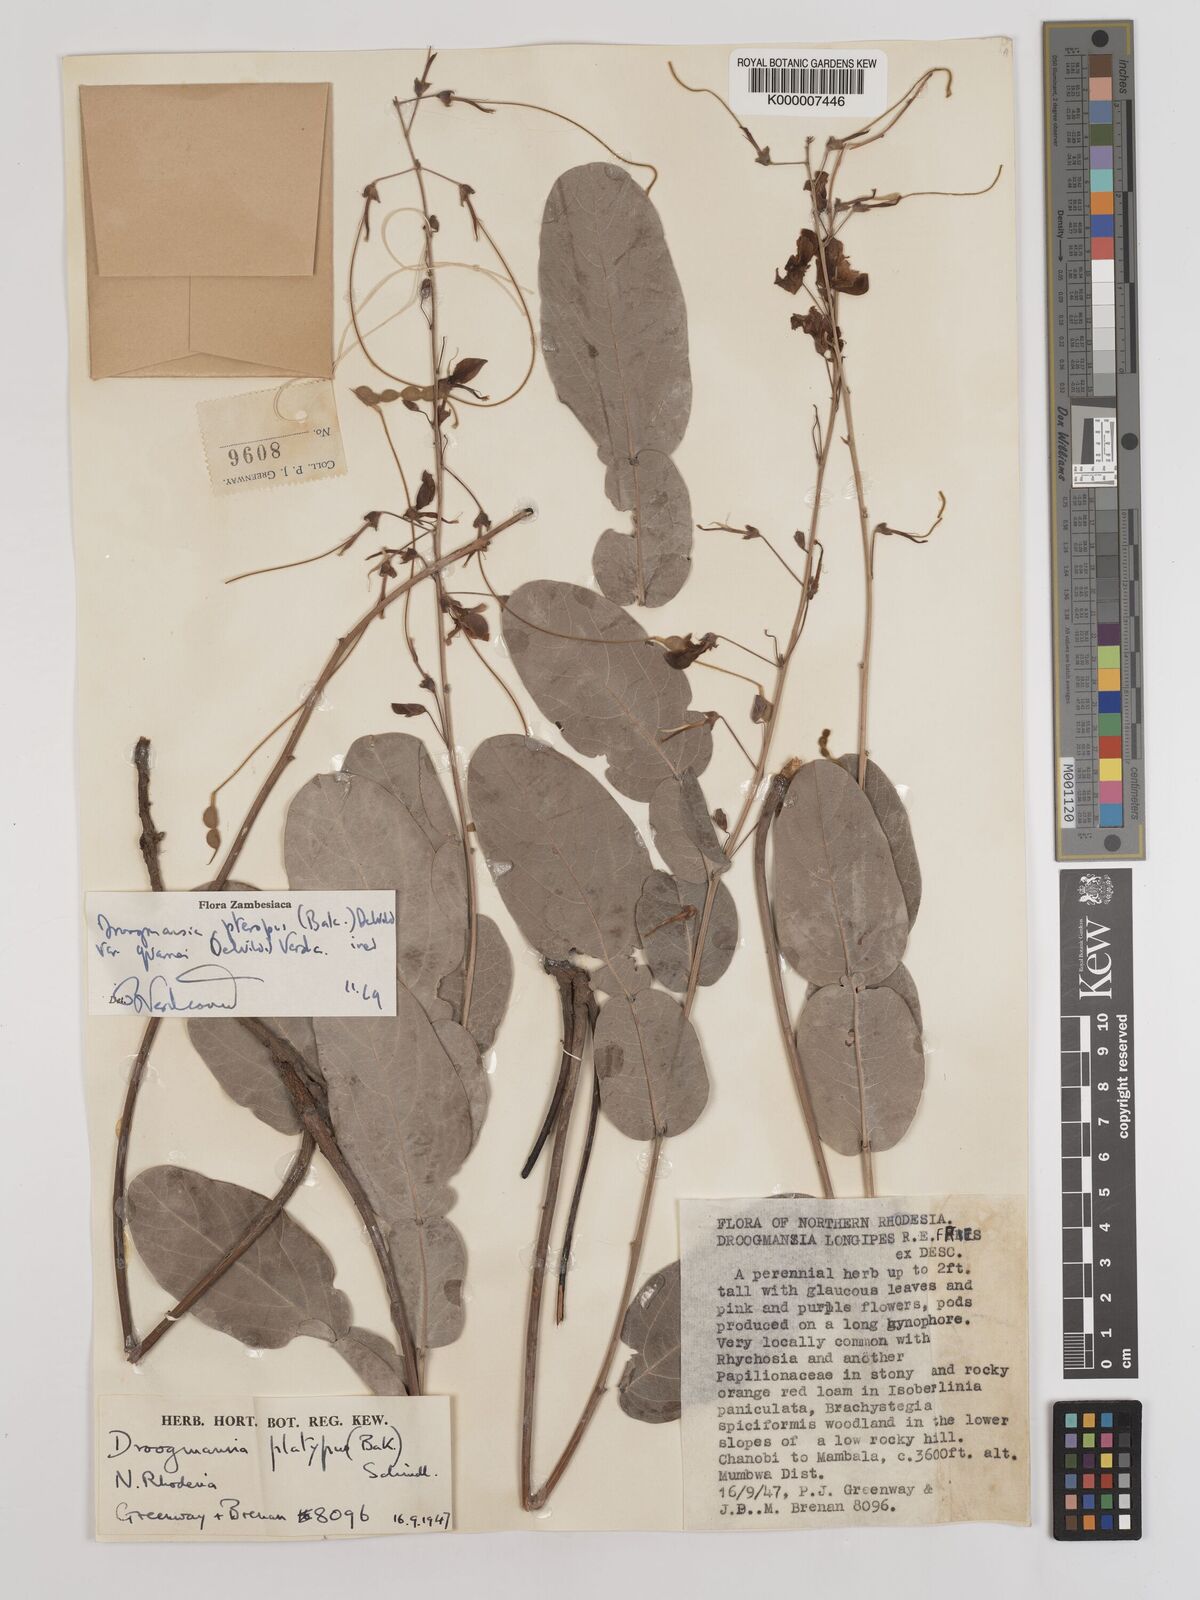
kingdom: Plantae
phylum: Tracheophyta
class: Magnoliopsida
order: Fabales
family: Fabaceae
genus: Droogmansia
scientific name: Droogmansia pteropus
